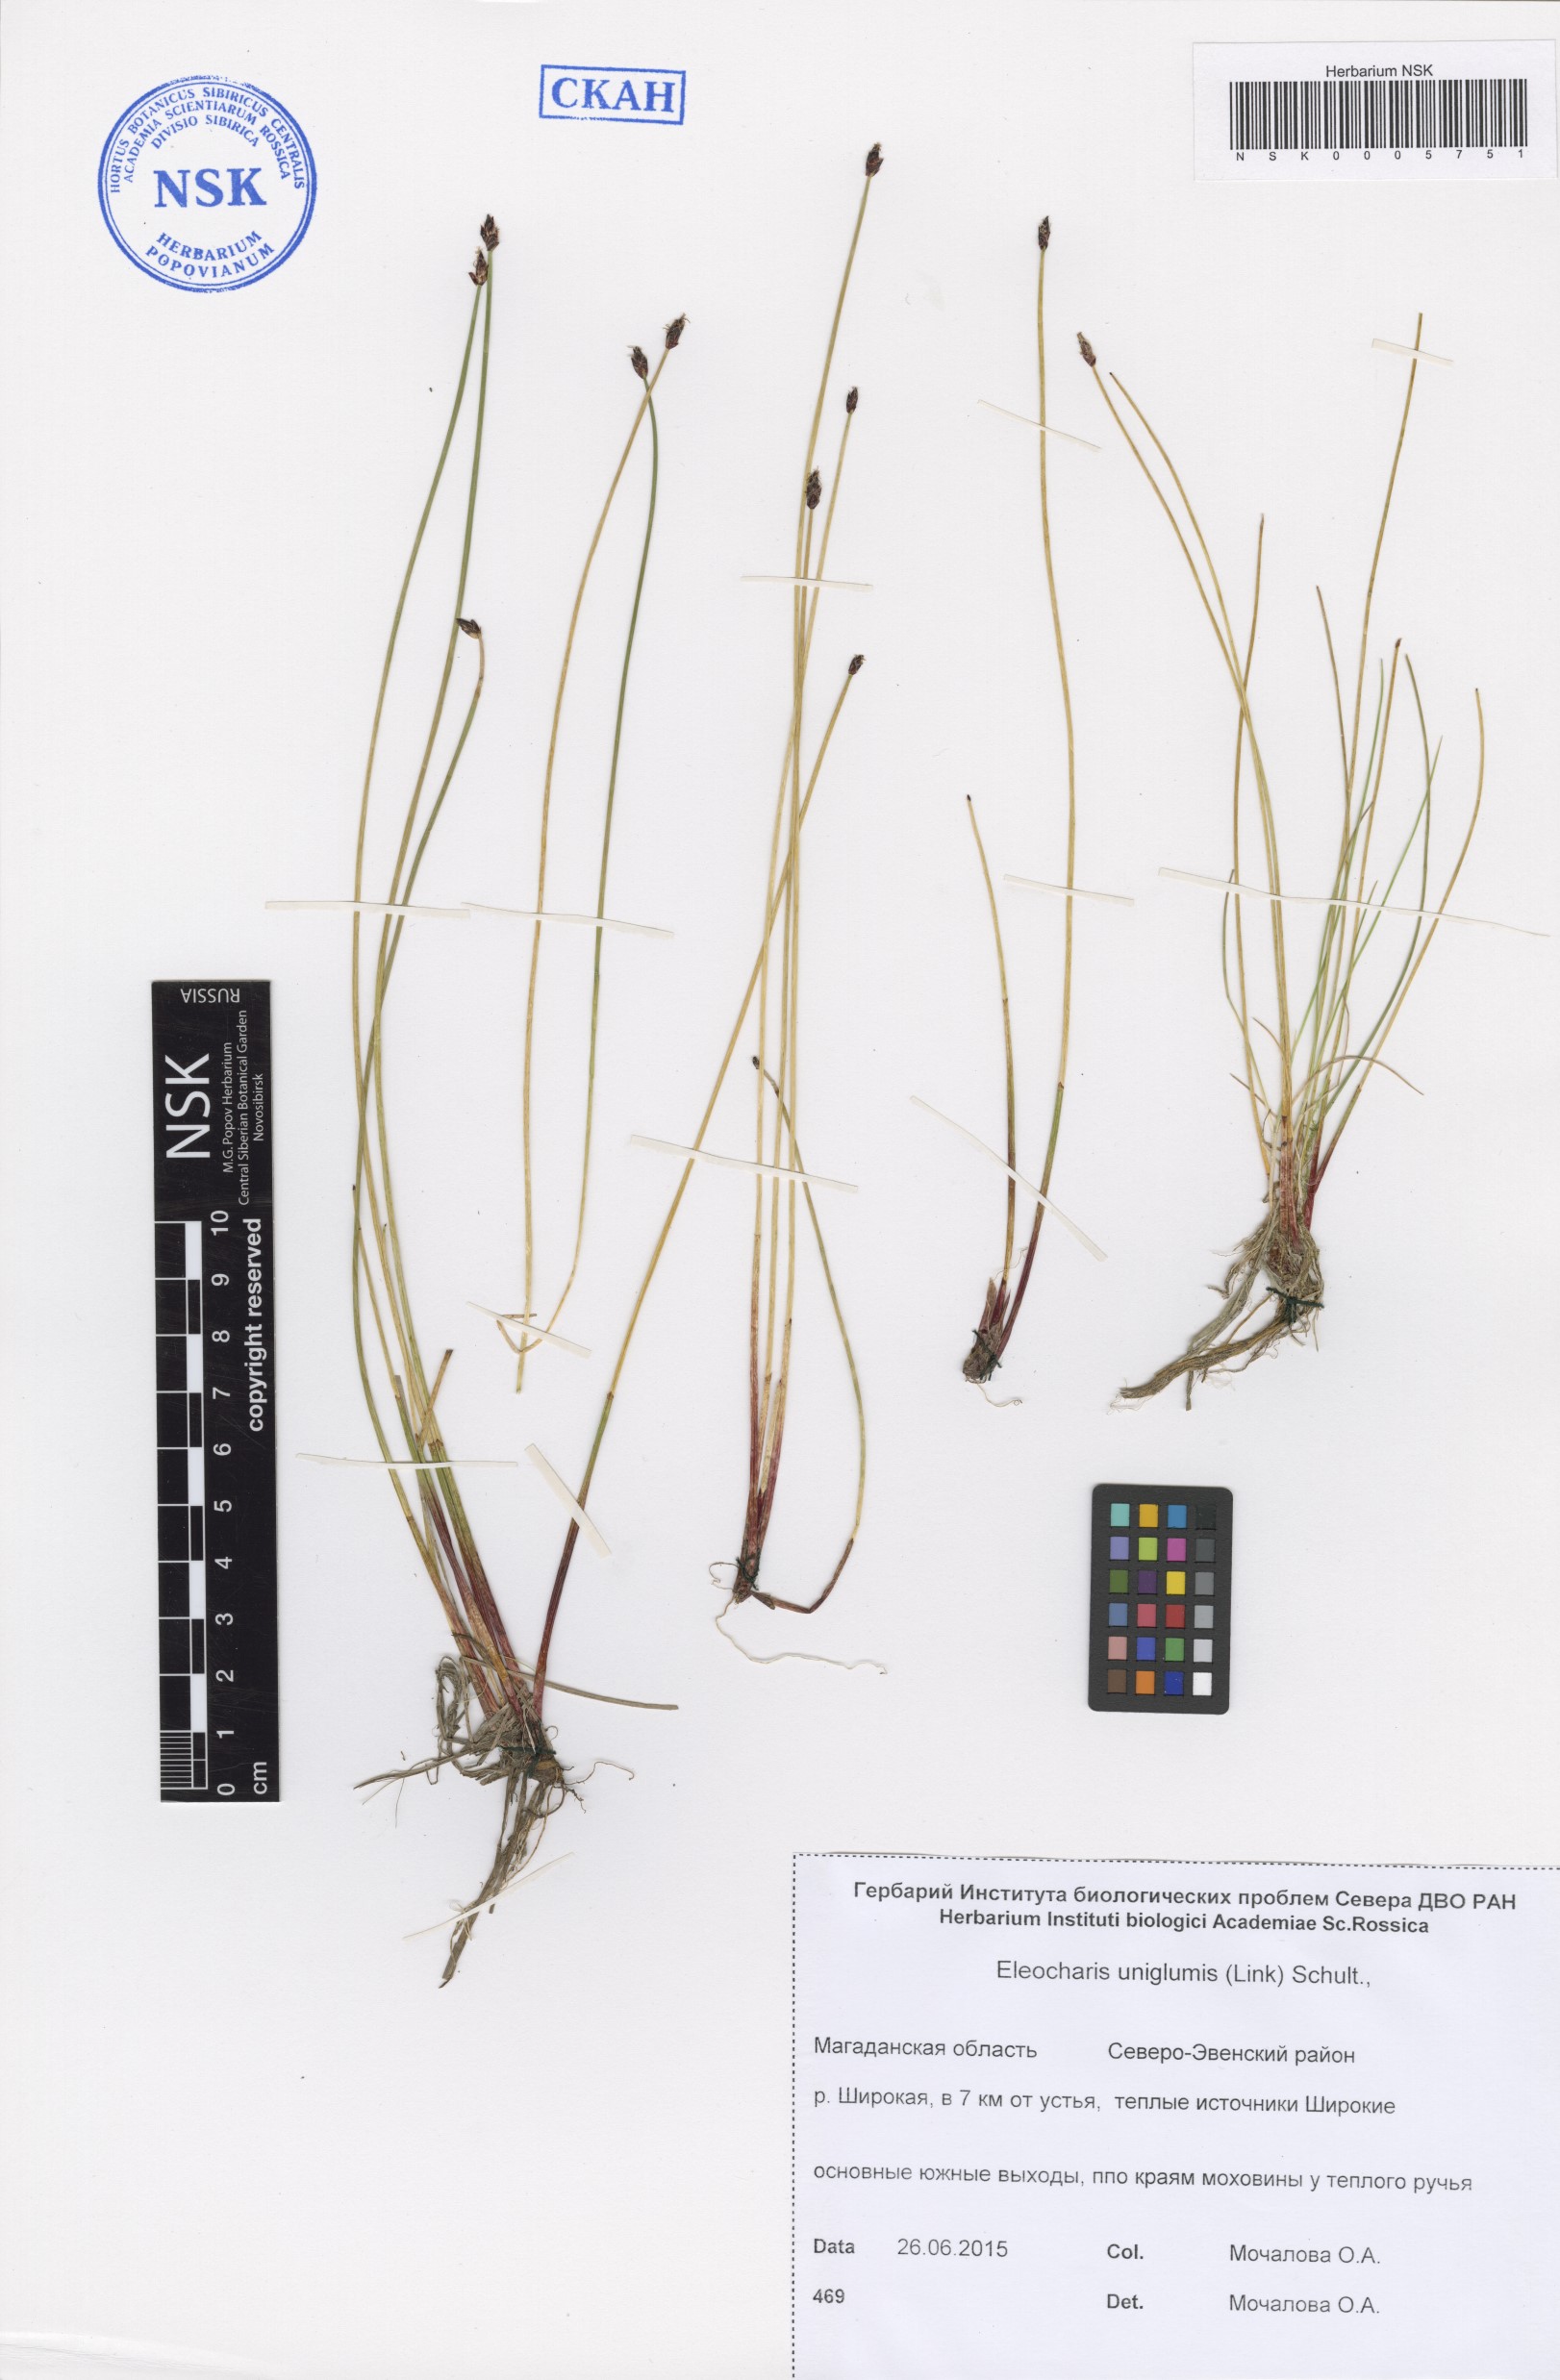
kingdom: Plantae
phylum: Tracheophyta
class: Liliopsida
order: Poales
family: Cyperaceae
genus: Eleocharis
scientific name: Eleocharis uniglumis
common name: Slender spike-rush
